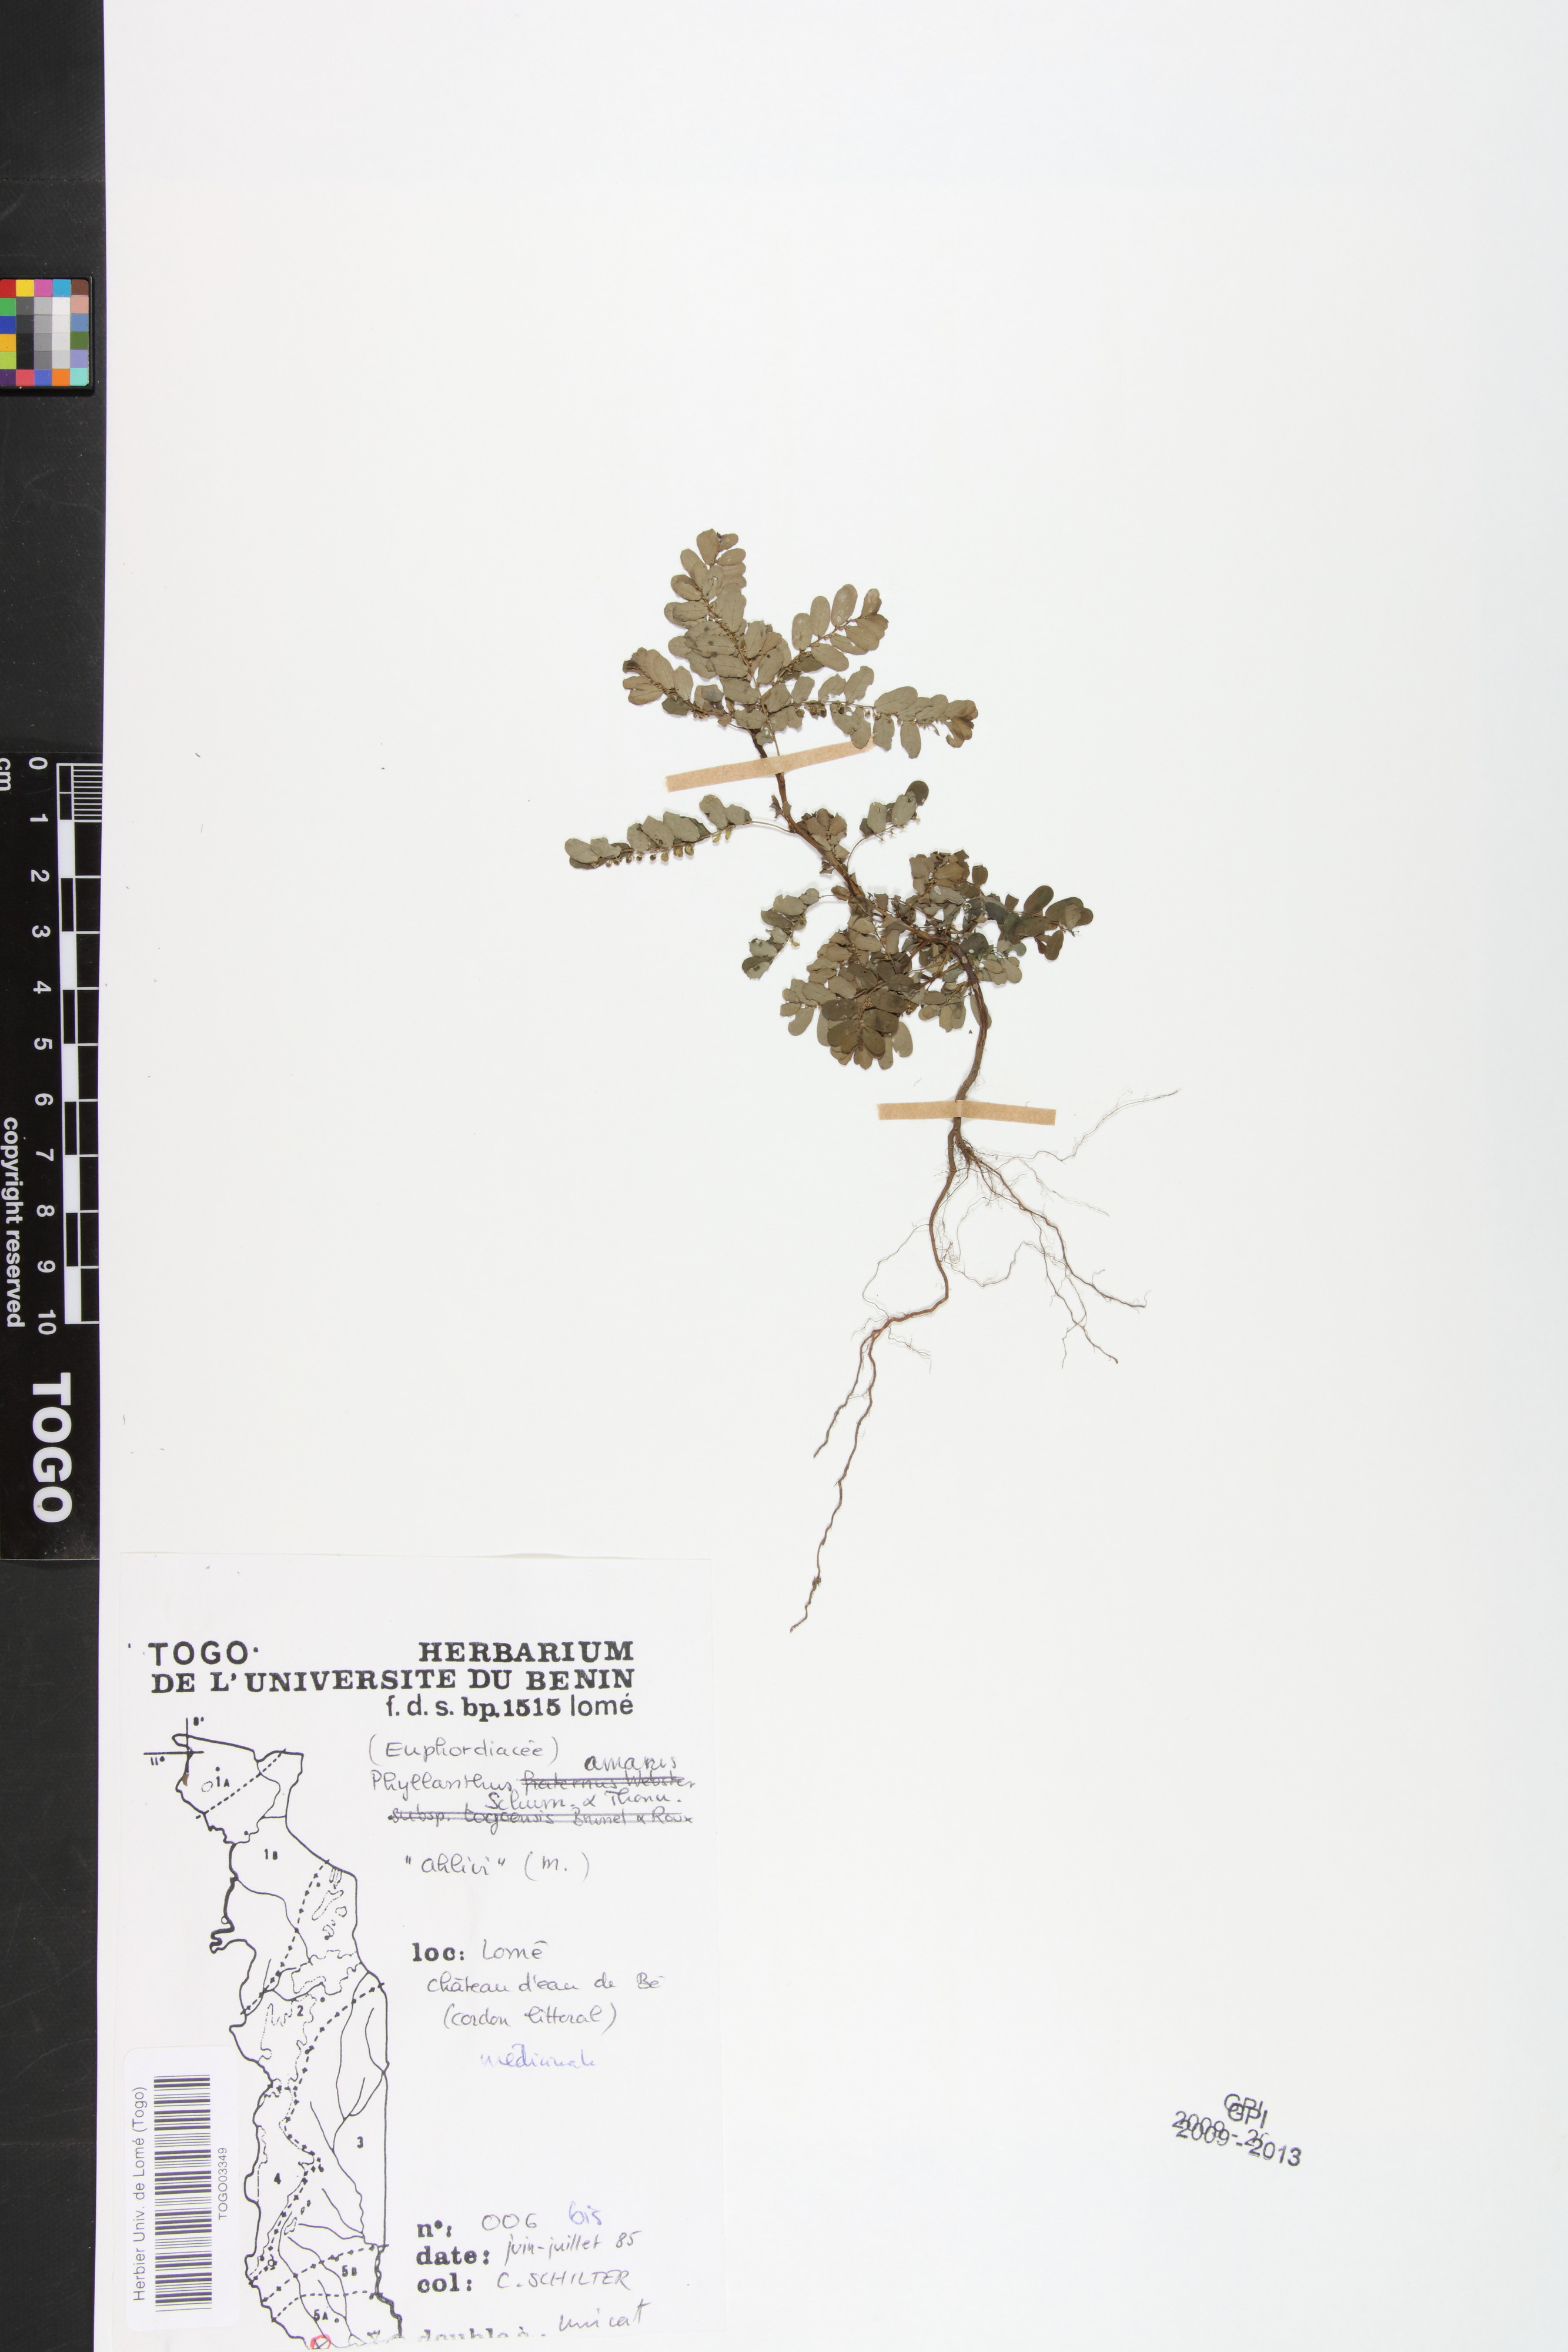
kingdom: Plantae
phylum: Tracheophyta
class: Magnoliopsida
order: Malpighiales
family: Phyllanthaceae
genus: Phyllanthus
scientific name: Phyllanthus amarus
